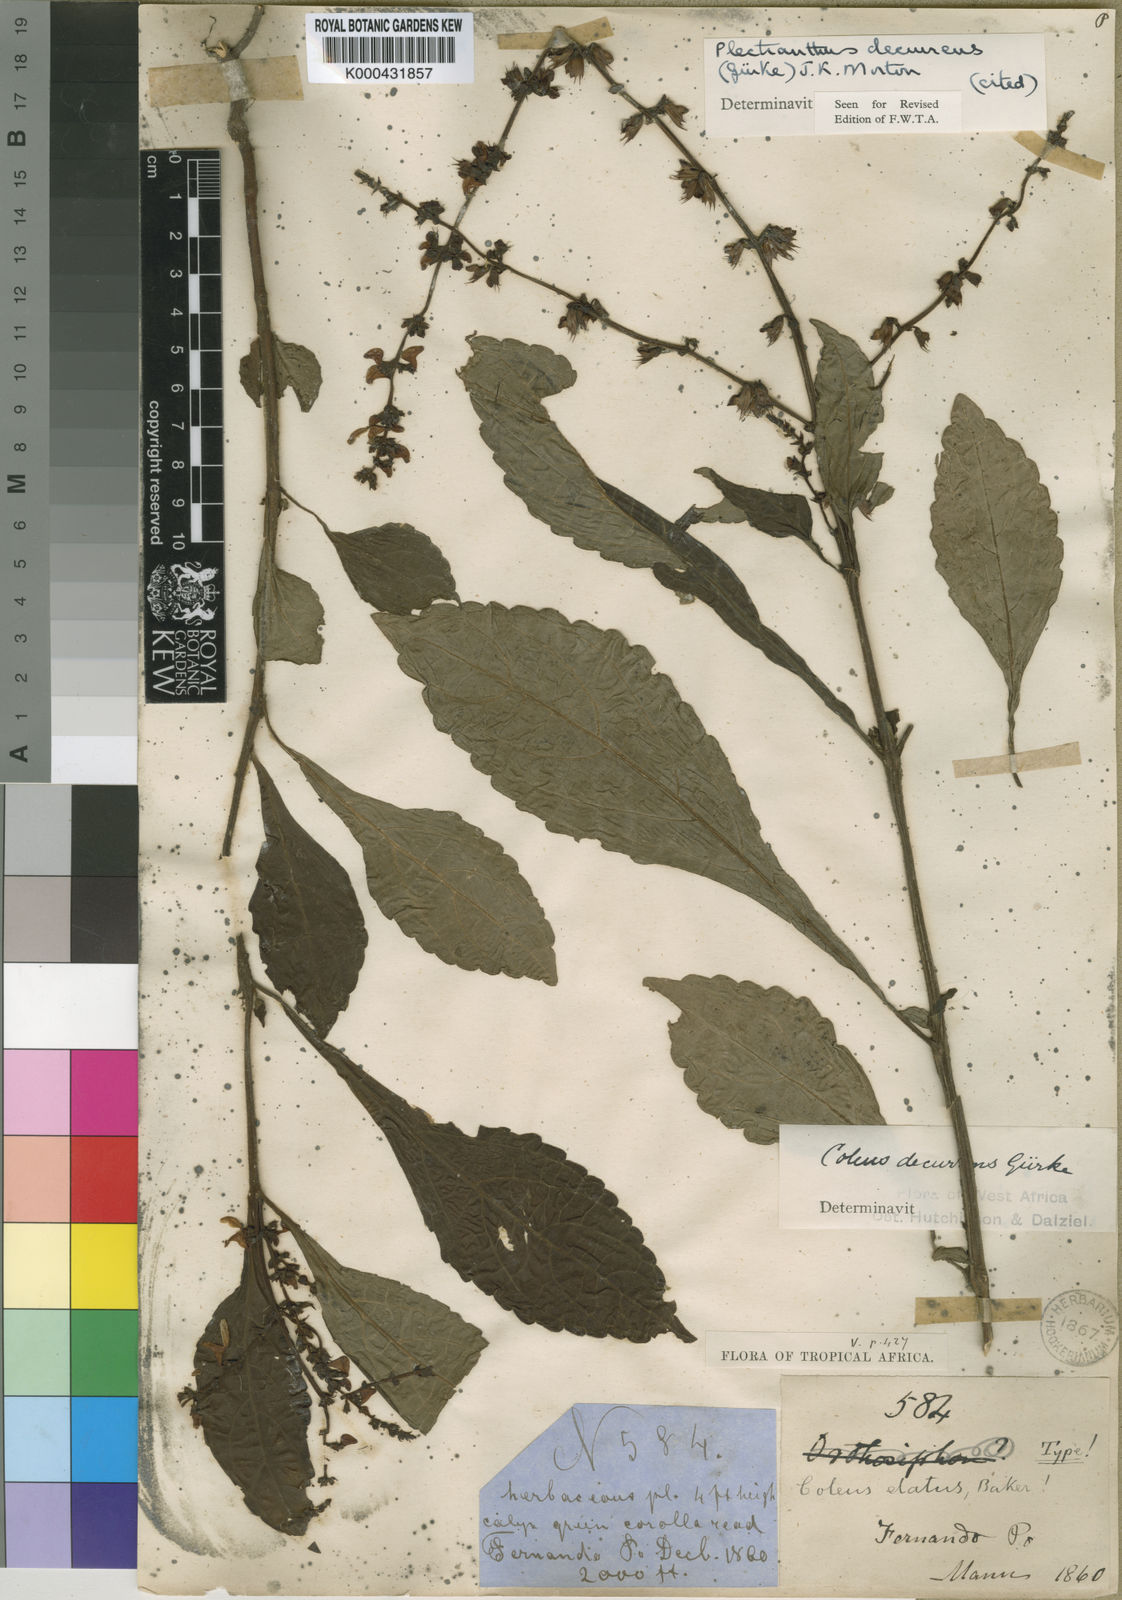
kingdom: Plantae
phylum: Tracheophyta
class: Magnoliopsida
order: Lamiales
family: Lamiaceae
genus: Plectranthus
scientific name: Plectranthus
